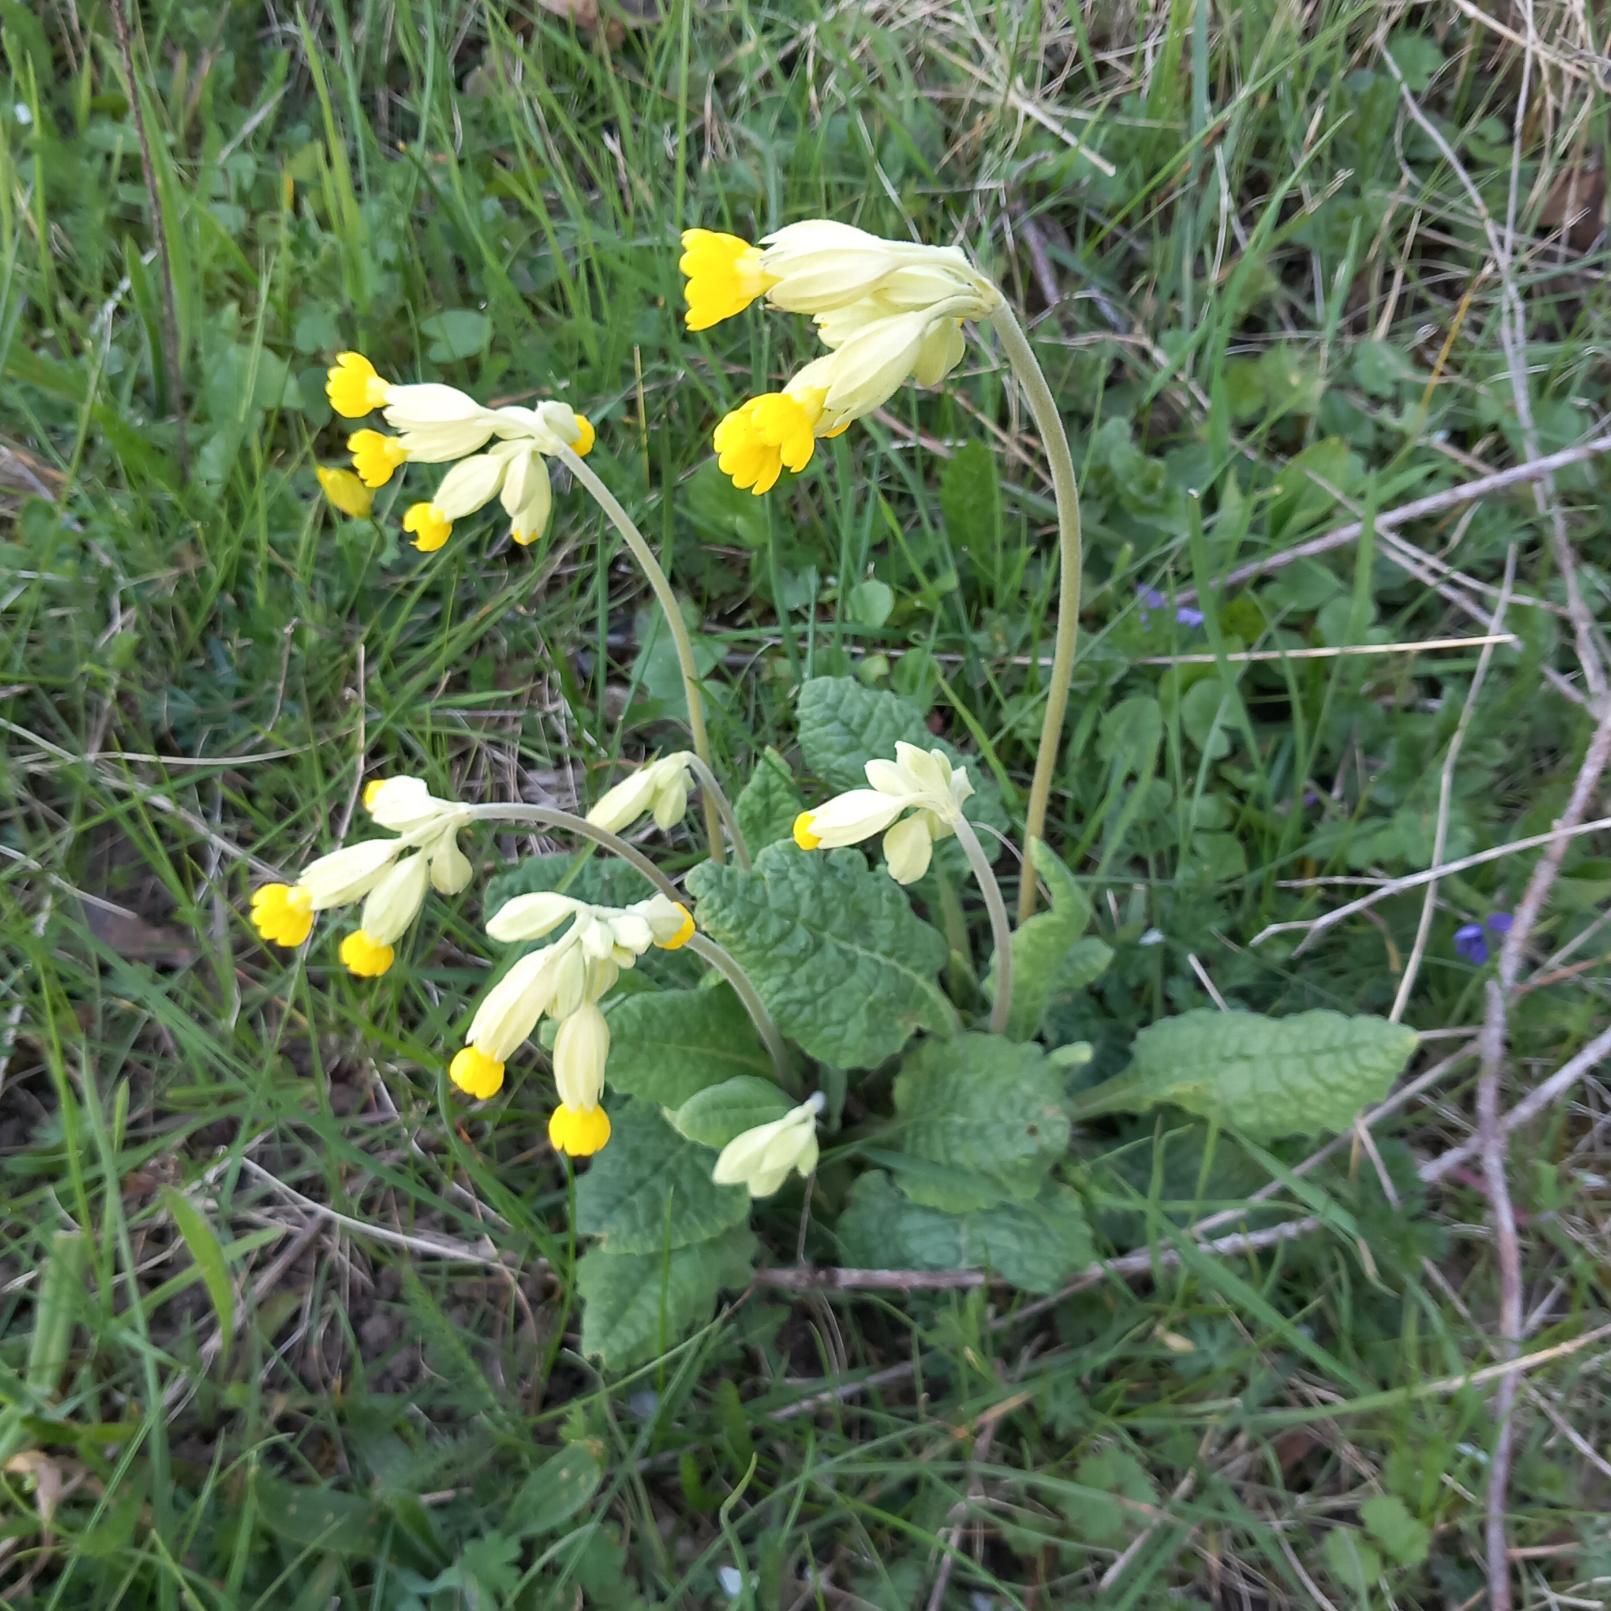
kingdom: Plantae
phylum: Tracheophyta
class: Magnoliopsida
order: Ericales
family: Primulaceae
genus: Primula
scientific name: Primula veris
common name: Hulkravet kodriver
